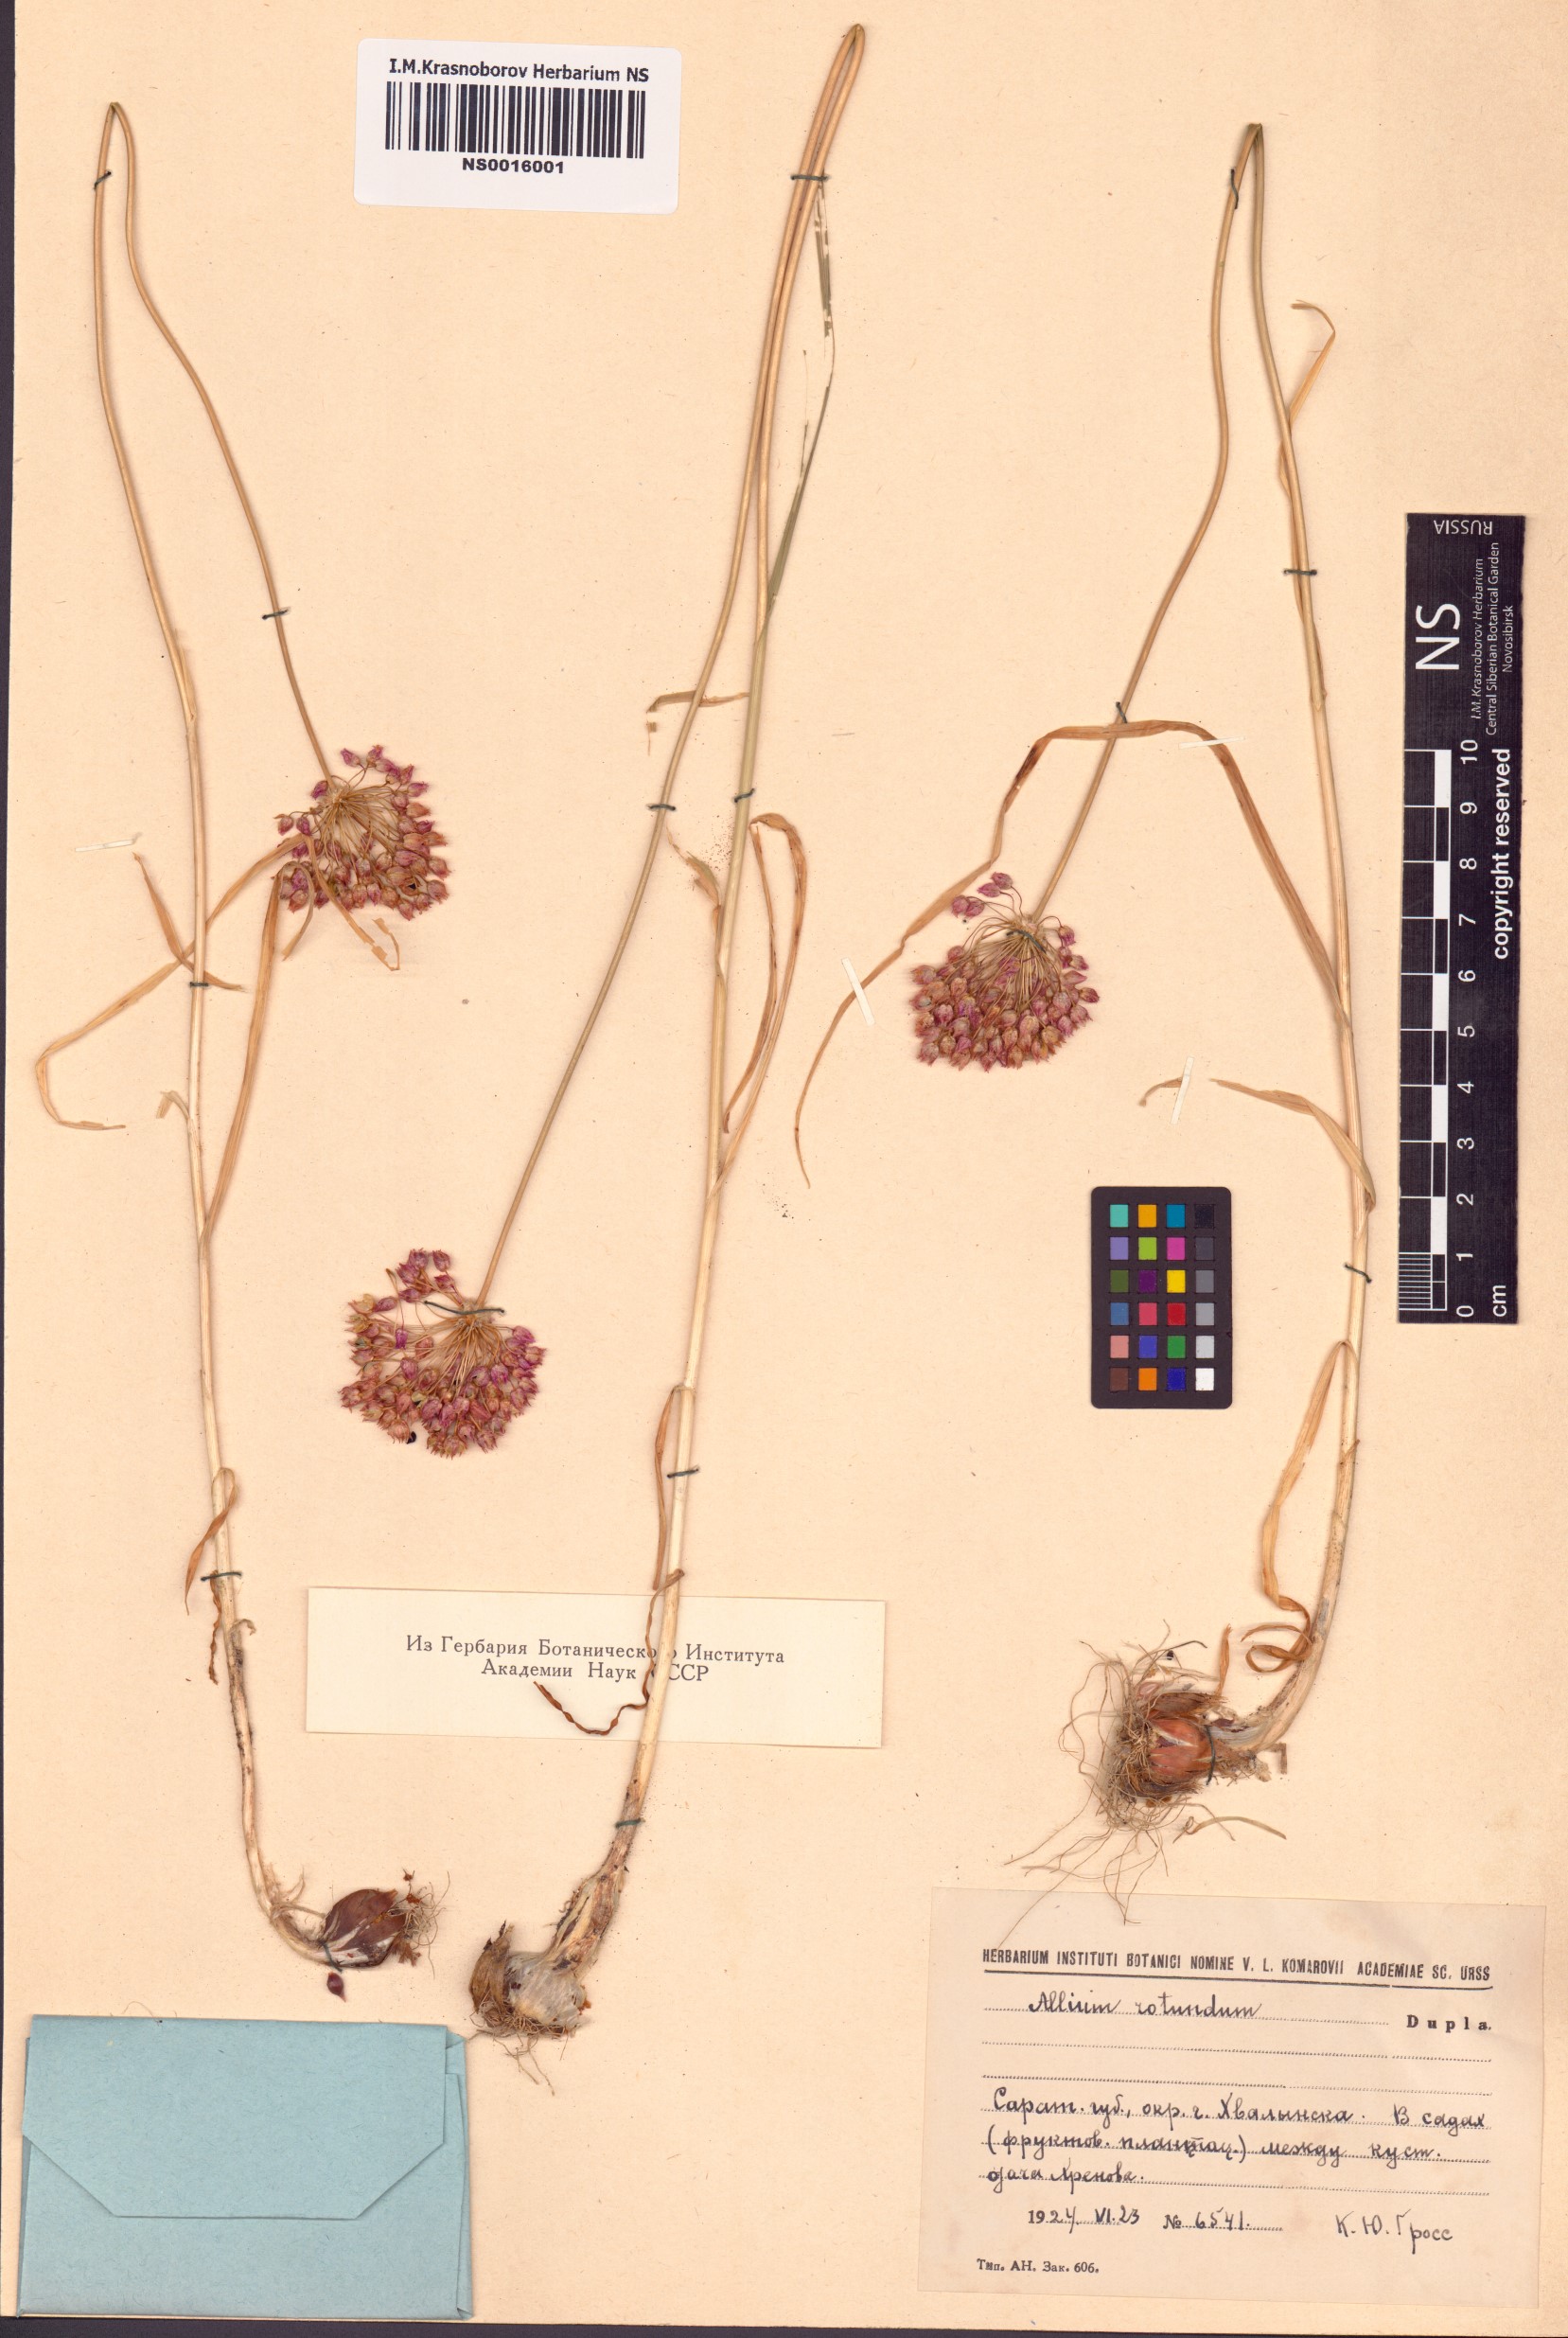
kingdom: Plantae
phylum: Tracheophyta
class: Liliopsida
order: Asparagales
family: Amaryllidaceae
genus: Allium
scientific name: Allium rotundum
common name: Sand leek
